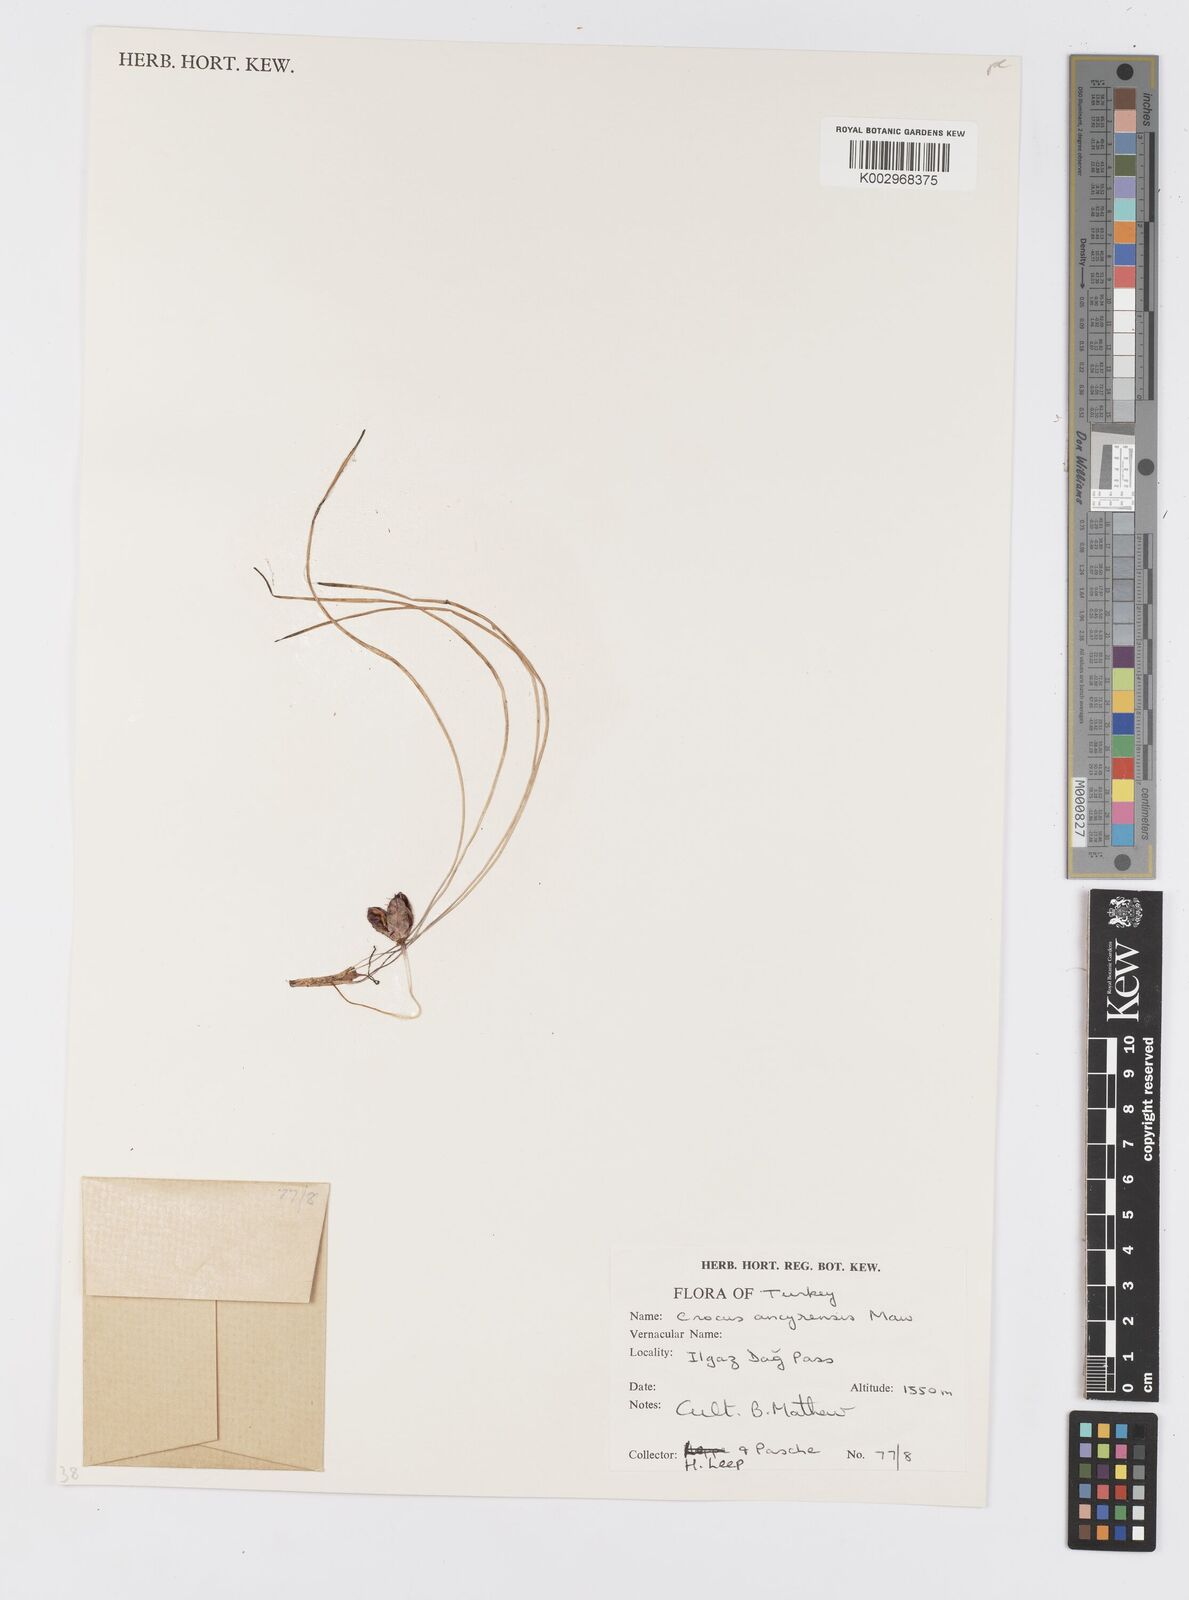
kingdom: Plantae
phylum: Tracheophyta
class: Liliopsida
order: Asparagales
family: Iridaceae
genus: Crocus
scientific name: Crocus ancyrensis
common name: Ankara crocus
